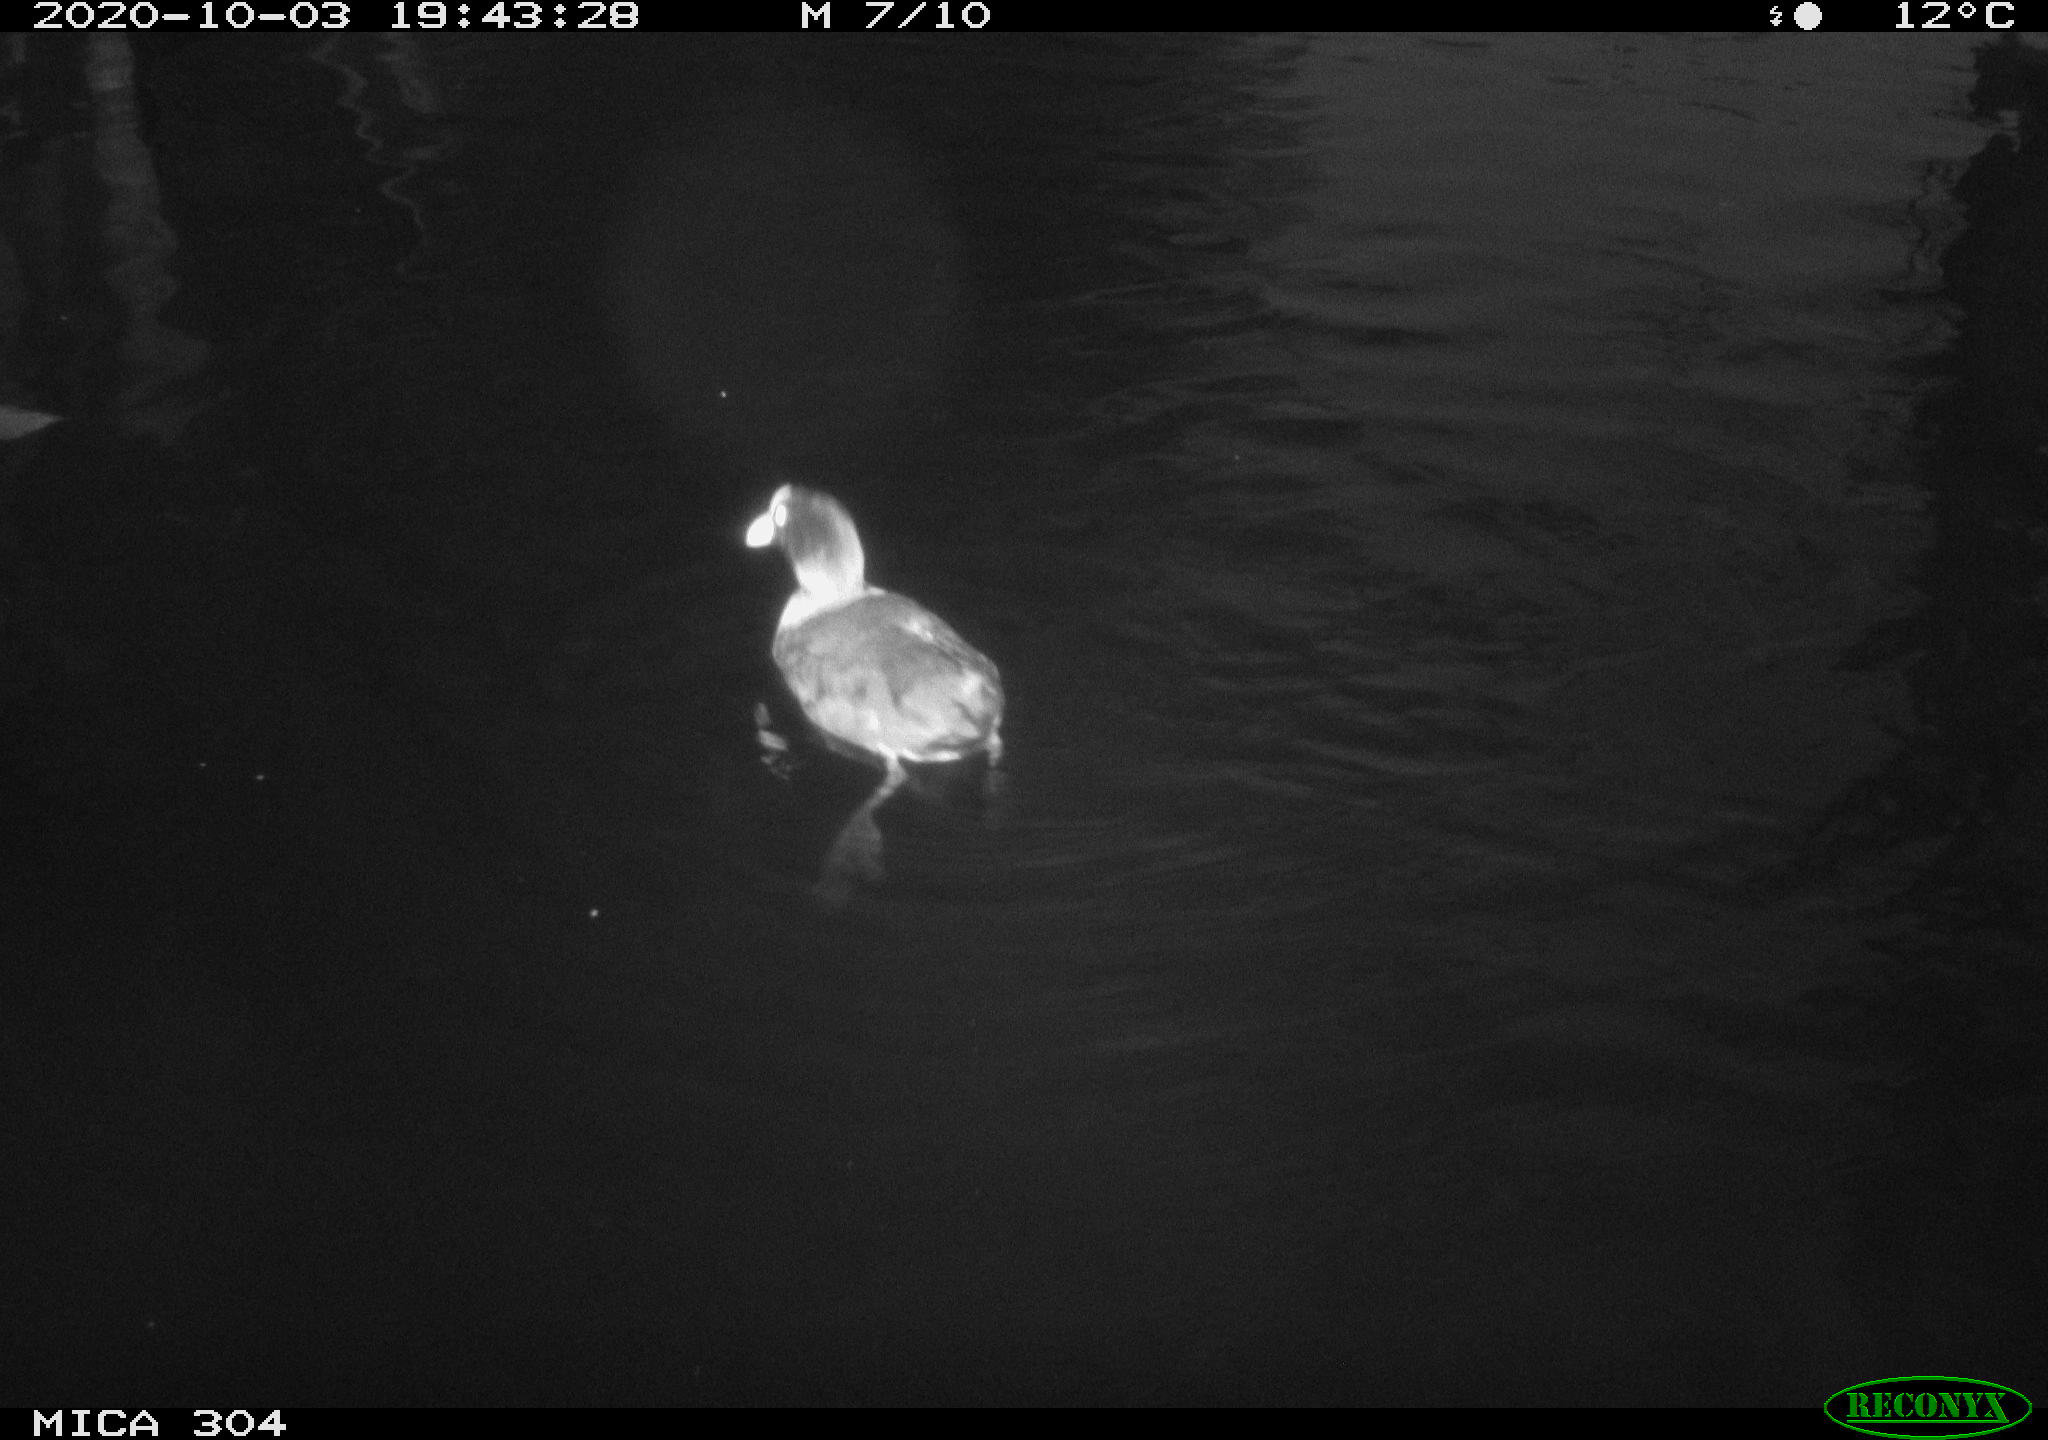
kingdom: Animalia
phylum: Chordata
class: Aves
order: Gruiformes
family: Rallidae
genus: Fulica
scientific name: Fulica atra
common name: Eurasian coot
